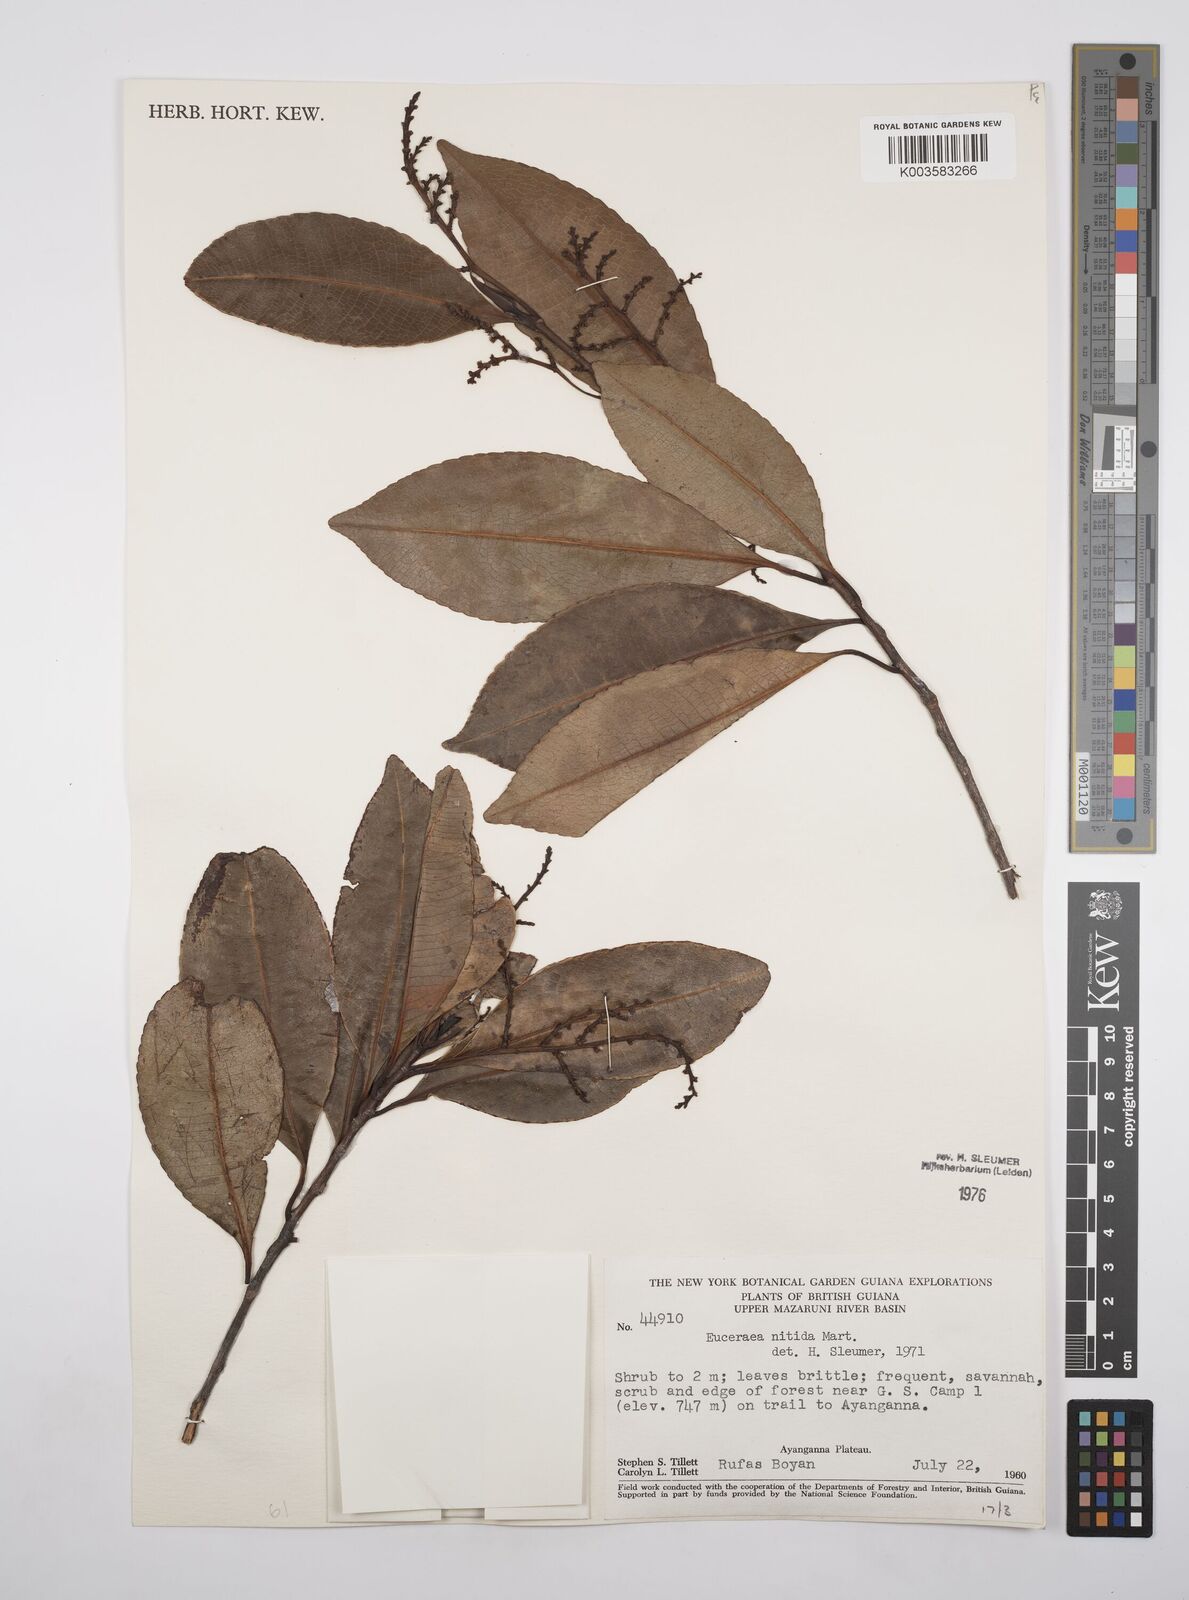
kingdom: Plantae
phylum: Tracheophyta
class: Magnoliopsida
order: Malpighiales
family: Salicaceae
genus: Casearia
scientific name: Casearia euceraea
